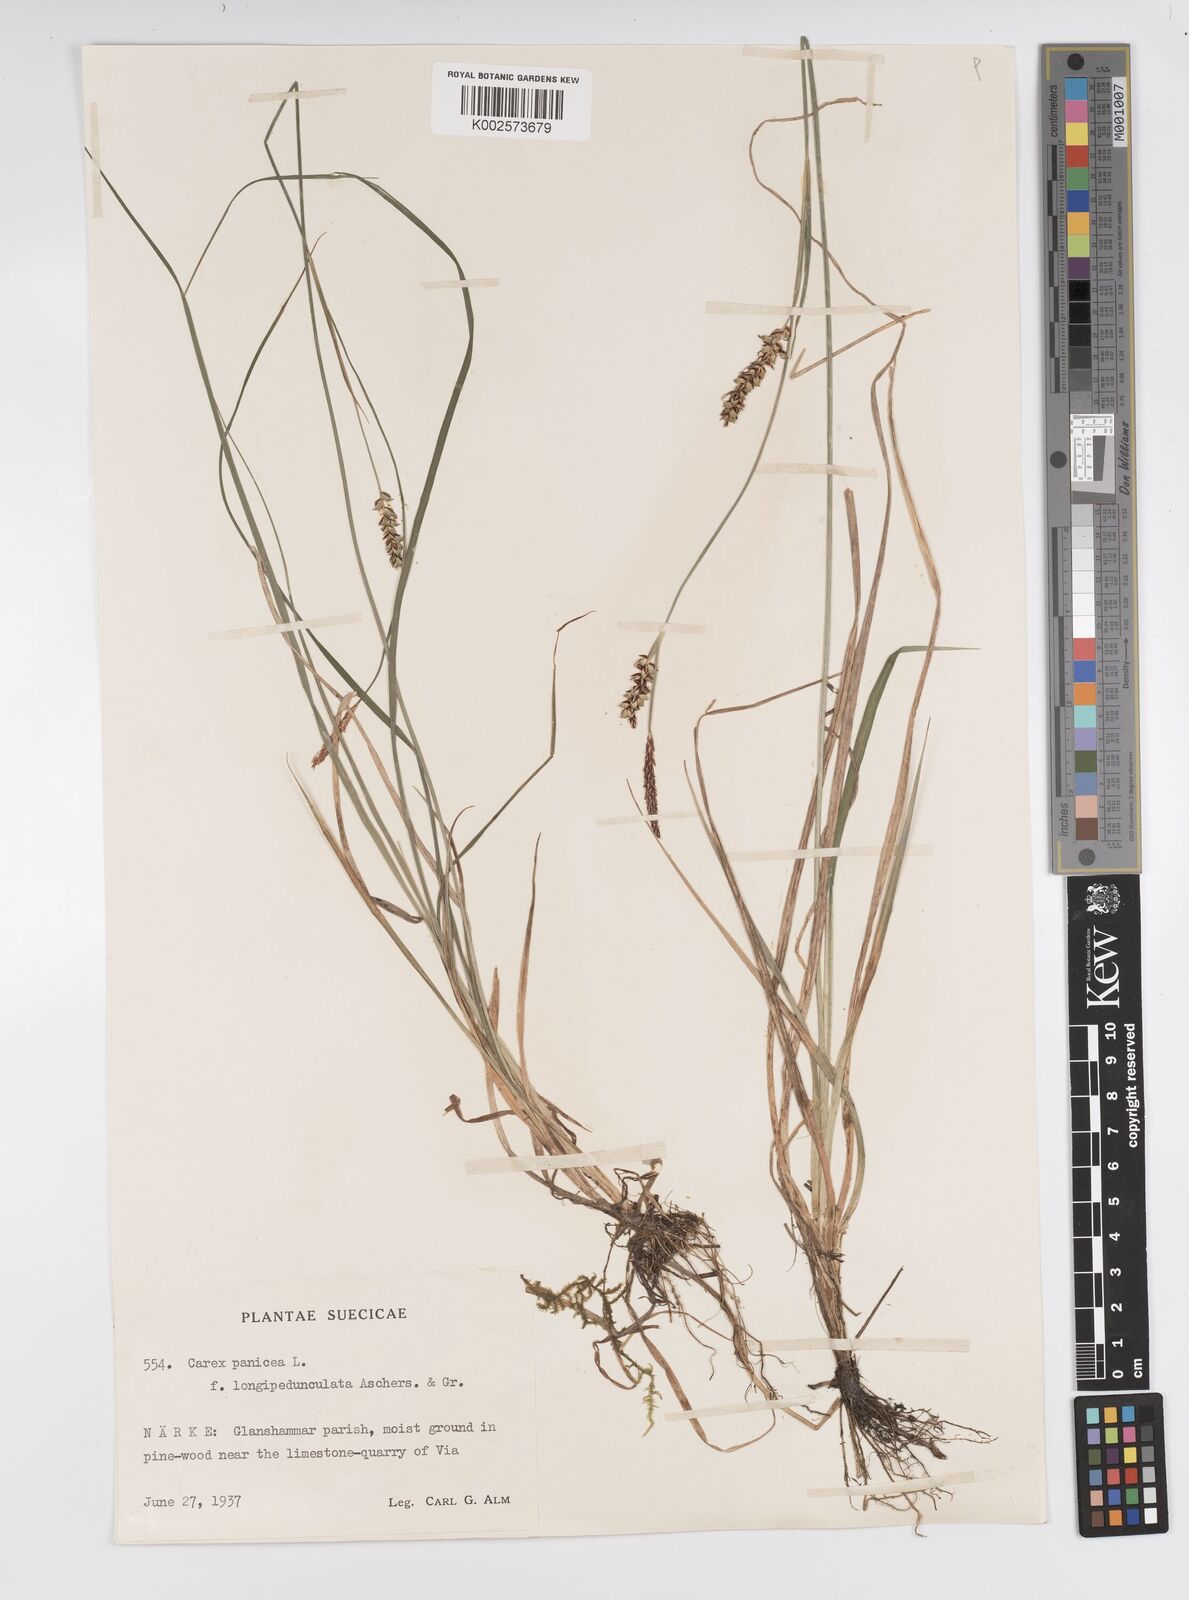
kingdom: Plantae
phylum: Tracheophyta
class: Liliopsida
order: Poales
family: Cyperaceae
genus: Carex
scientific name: Carex panicea
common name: Carnation sedge
